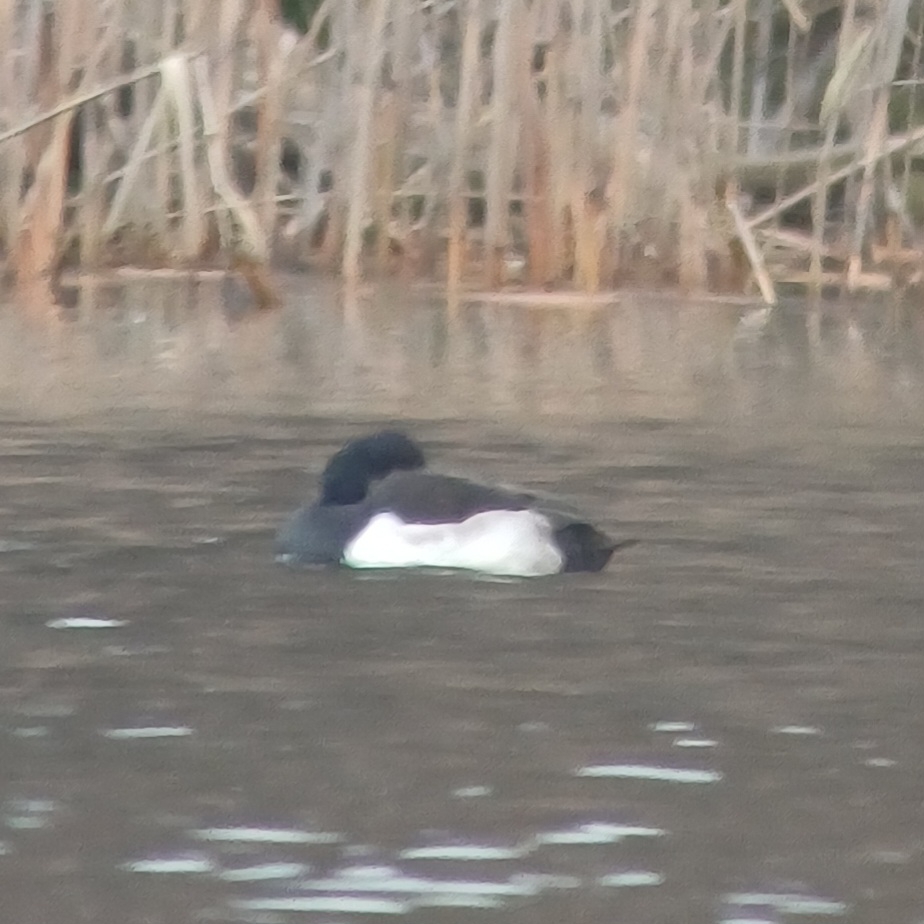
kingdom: Animalia
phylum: Chordata
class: Aves
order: Anseriformes
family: Anatidae
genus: Aythya
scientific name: Aythya fuligula
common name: Troldand
